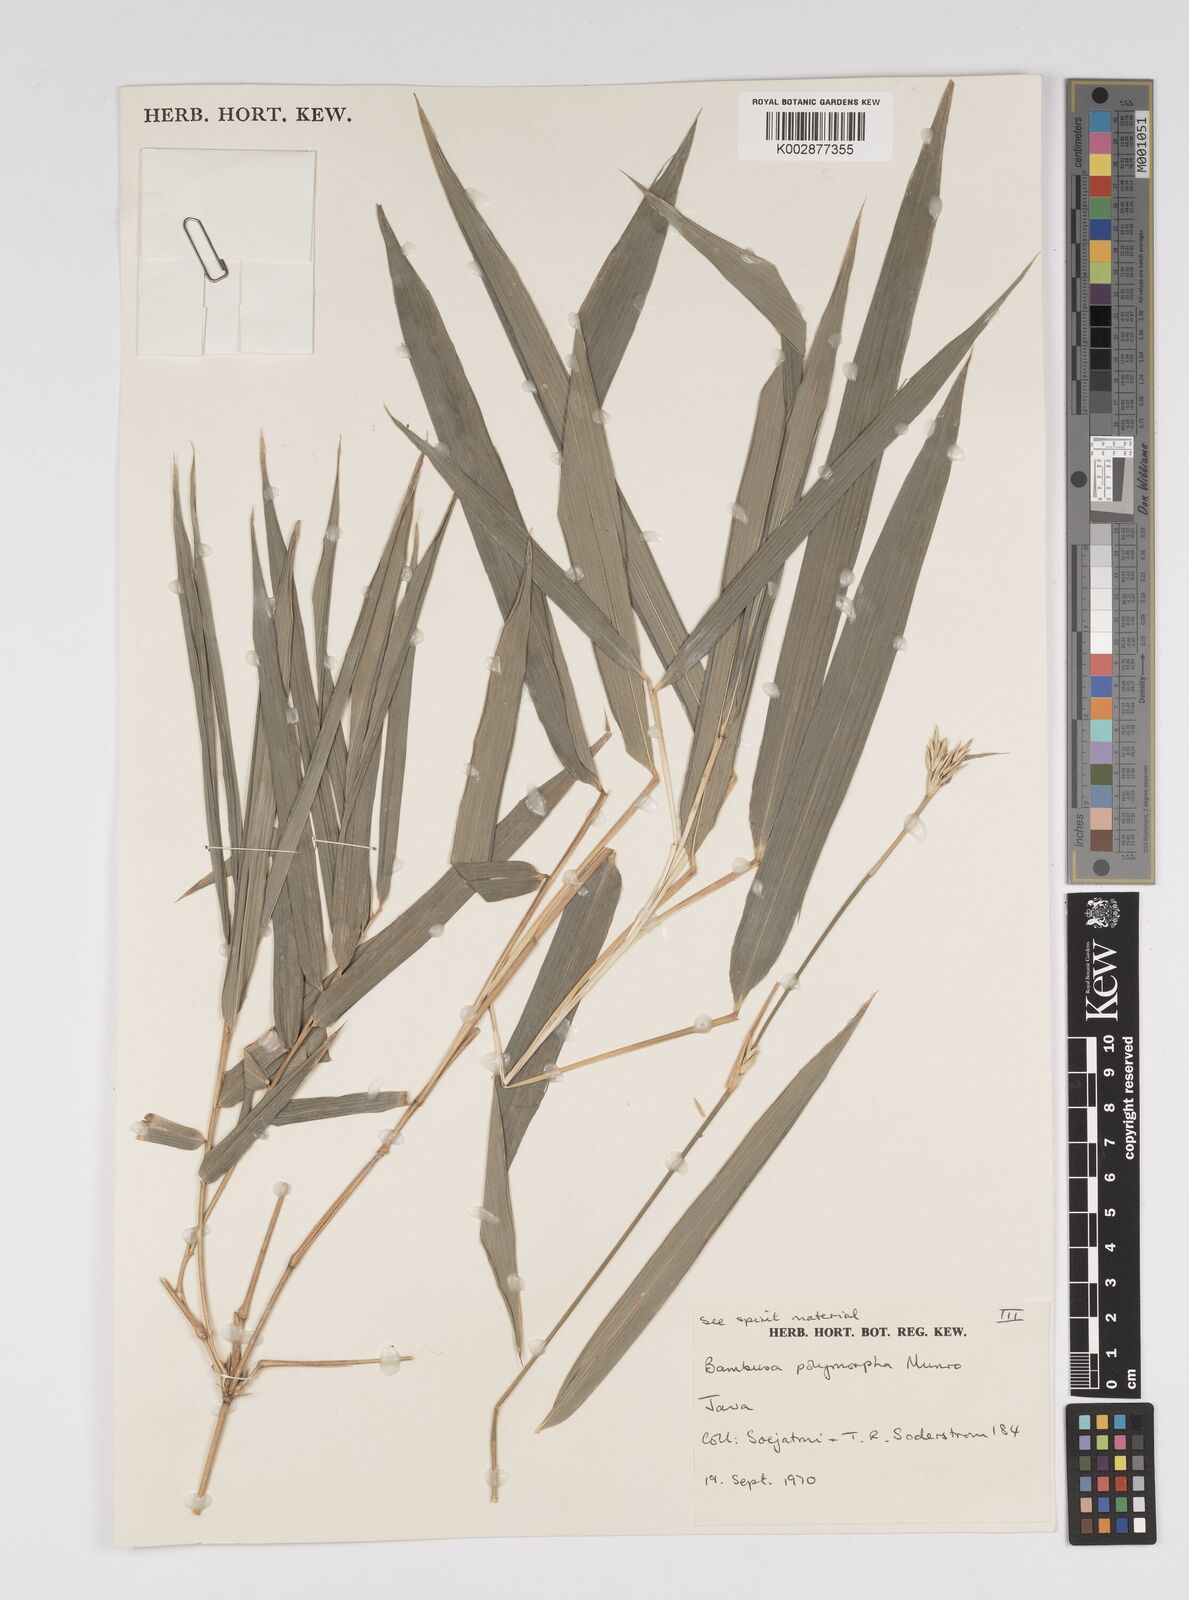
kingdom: Plantae
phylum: Tracheophyta
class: Liliopsida
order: Poales
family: Poaceae
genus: Bambusa
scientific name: Bambusa polymorpha
